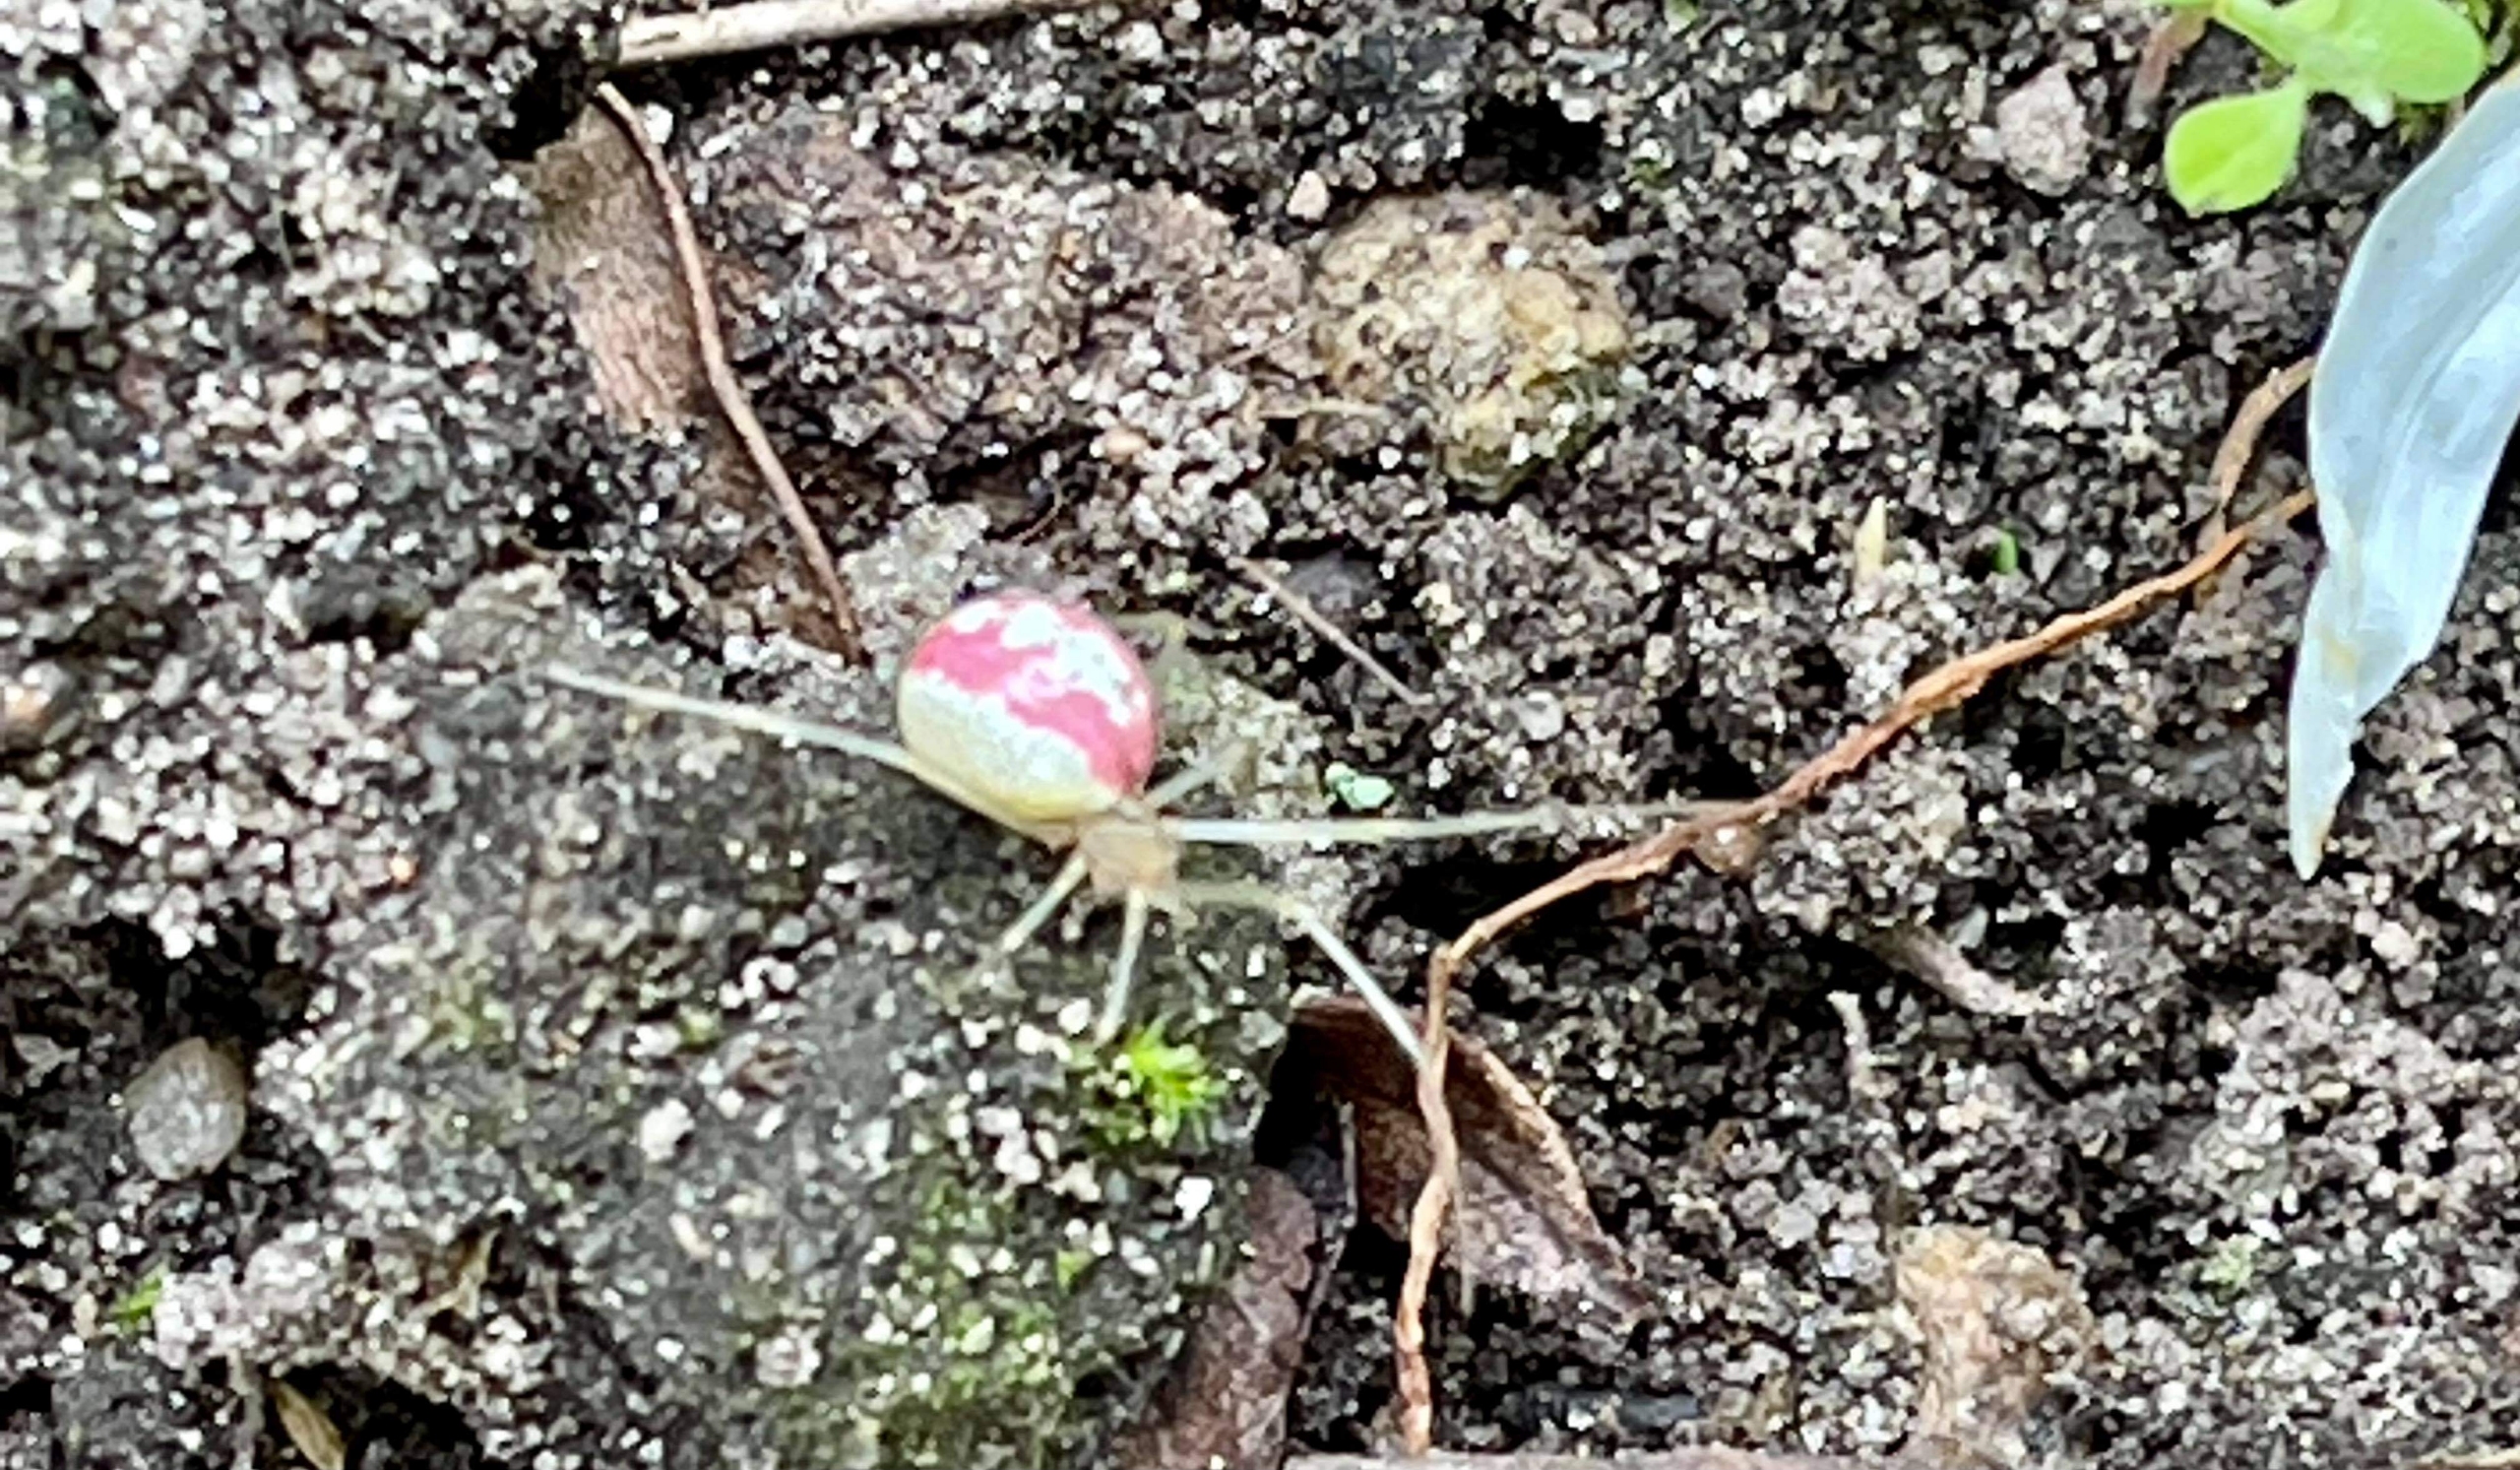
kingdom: Animalia
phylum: Arthropoda
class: Arachnida
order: Araneae
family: Theridiidae
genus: Enoplognatha
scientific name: Enoplognatha
